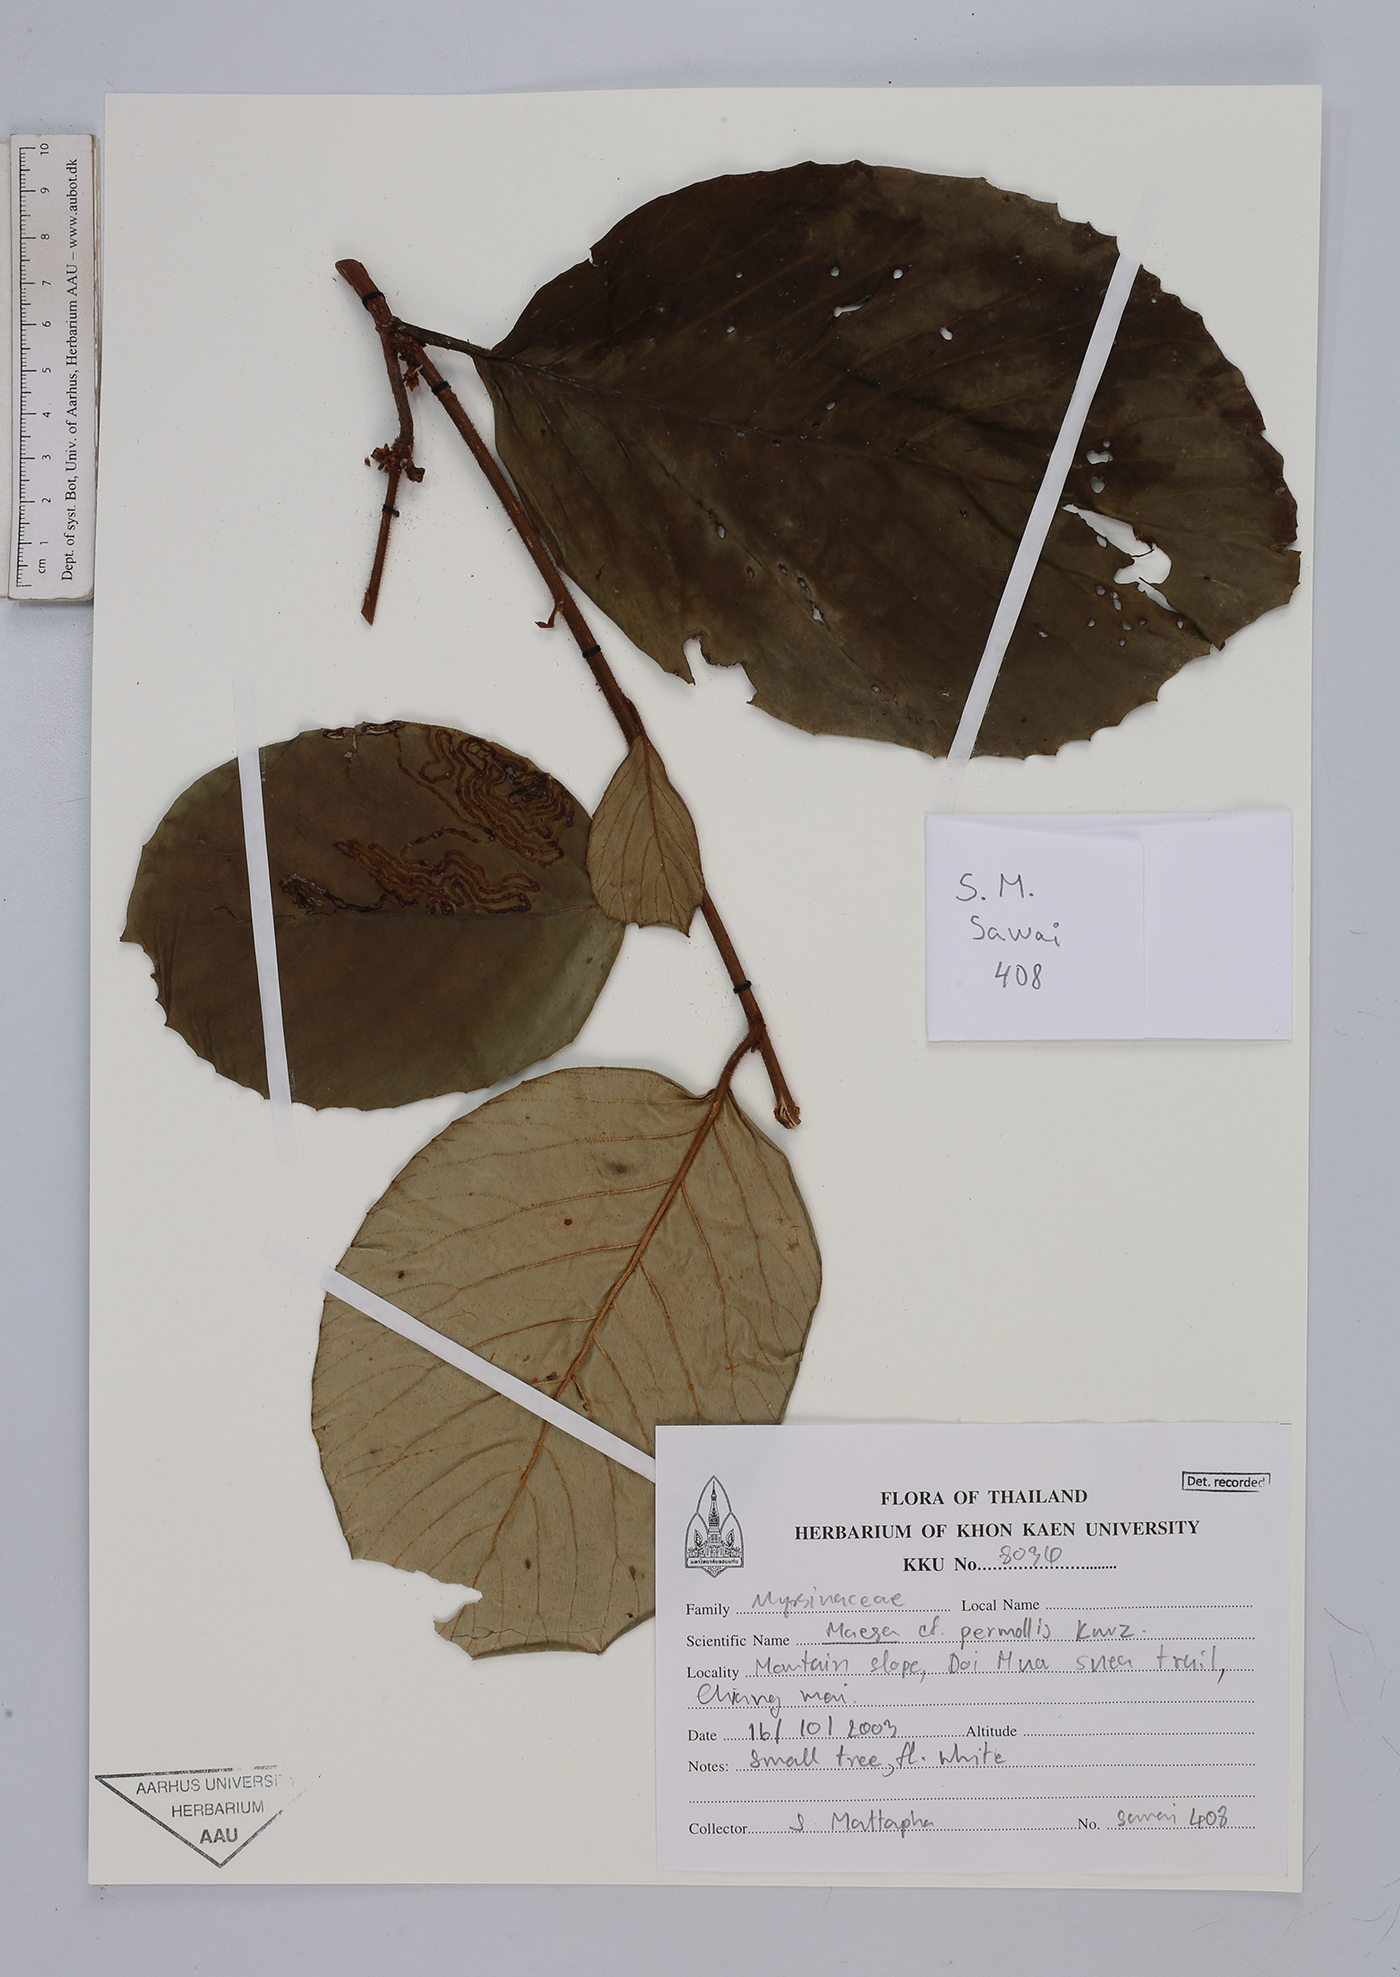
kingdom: Plantae
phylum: Tracheophyta
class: Magnoliopsida
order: Ericales
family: Primulaceae
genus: Maesa
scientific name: Maesa permollis
